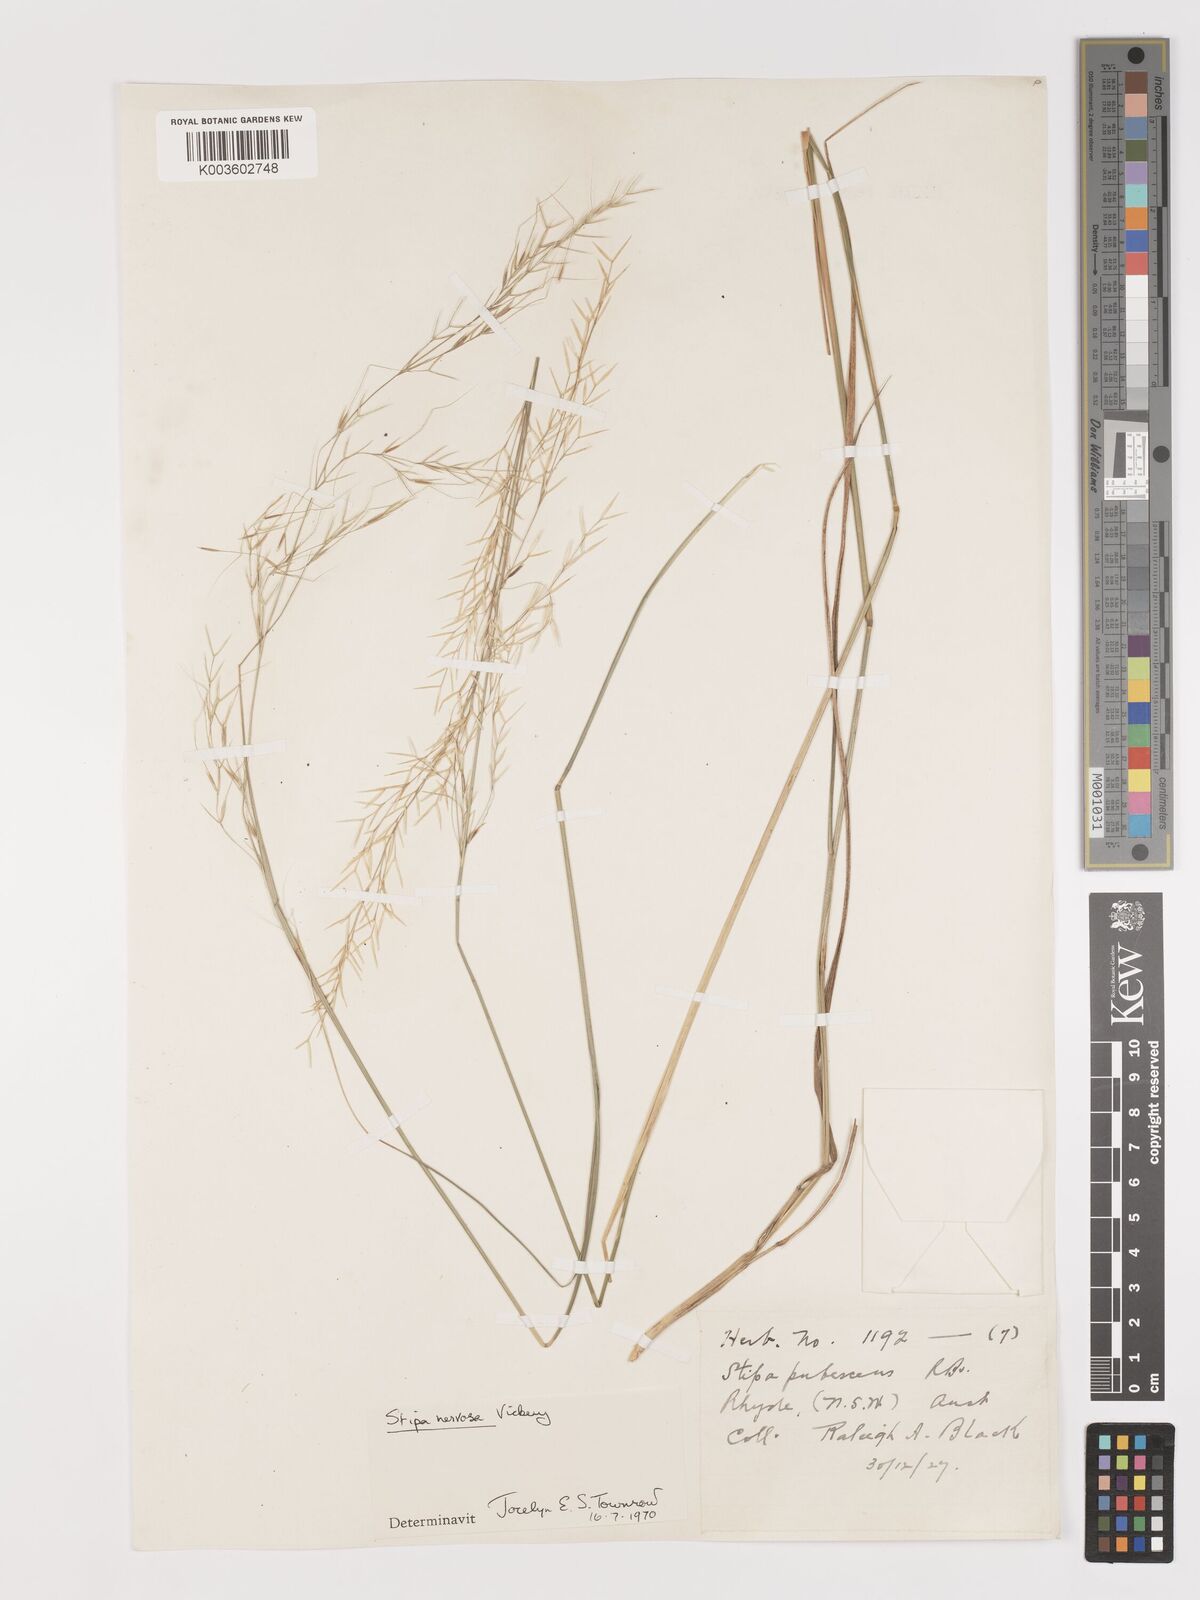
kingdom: Plantae
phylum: Tracheophyta
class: Liliopsida
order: Poales
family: Poaceae
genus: Austrostipa
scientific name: Austrostipa rudis
